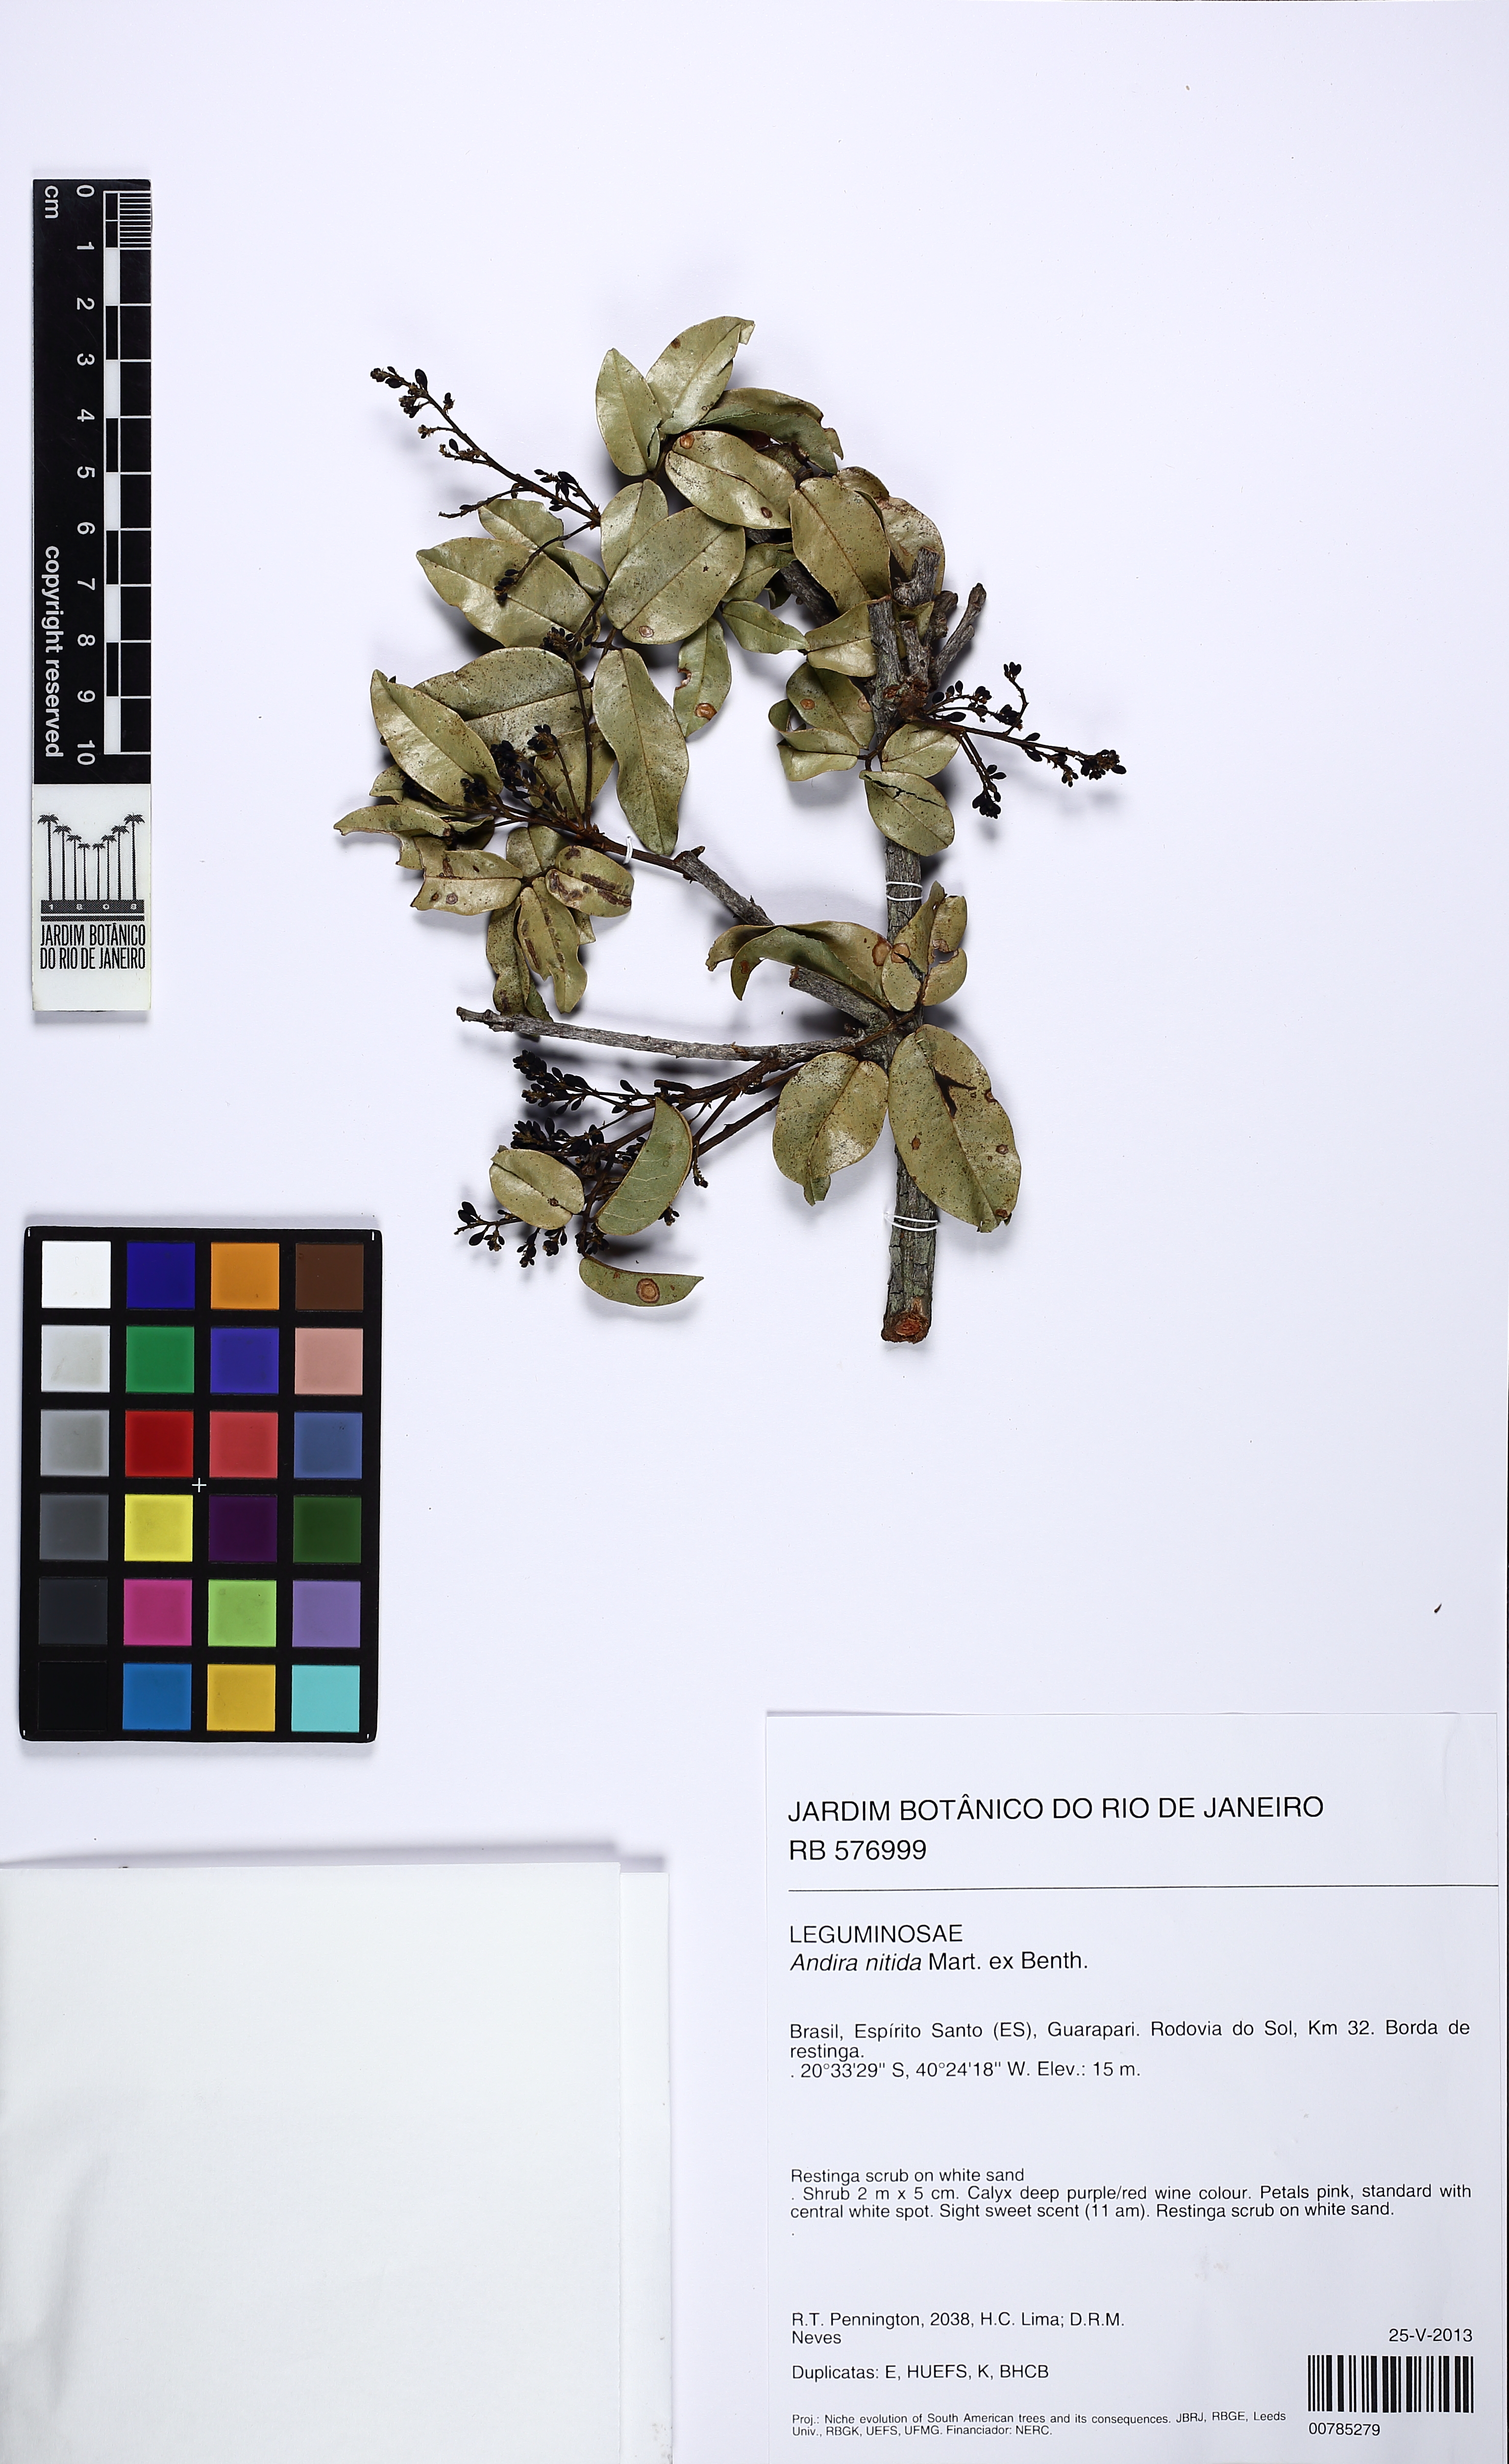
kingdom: Plantae
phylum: Tracheophyta
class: Magnoliopsida
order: Fabales
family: Fabaceae
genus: Andira
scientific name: Andira nitida
